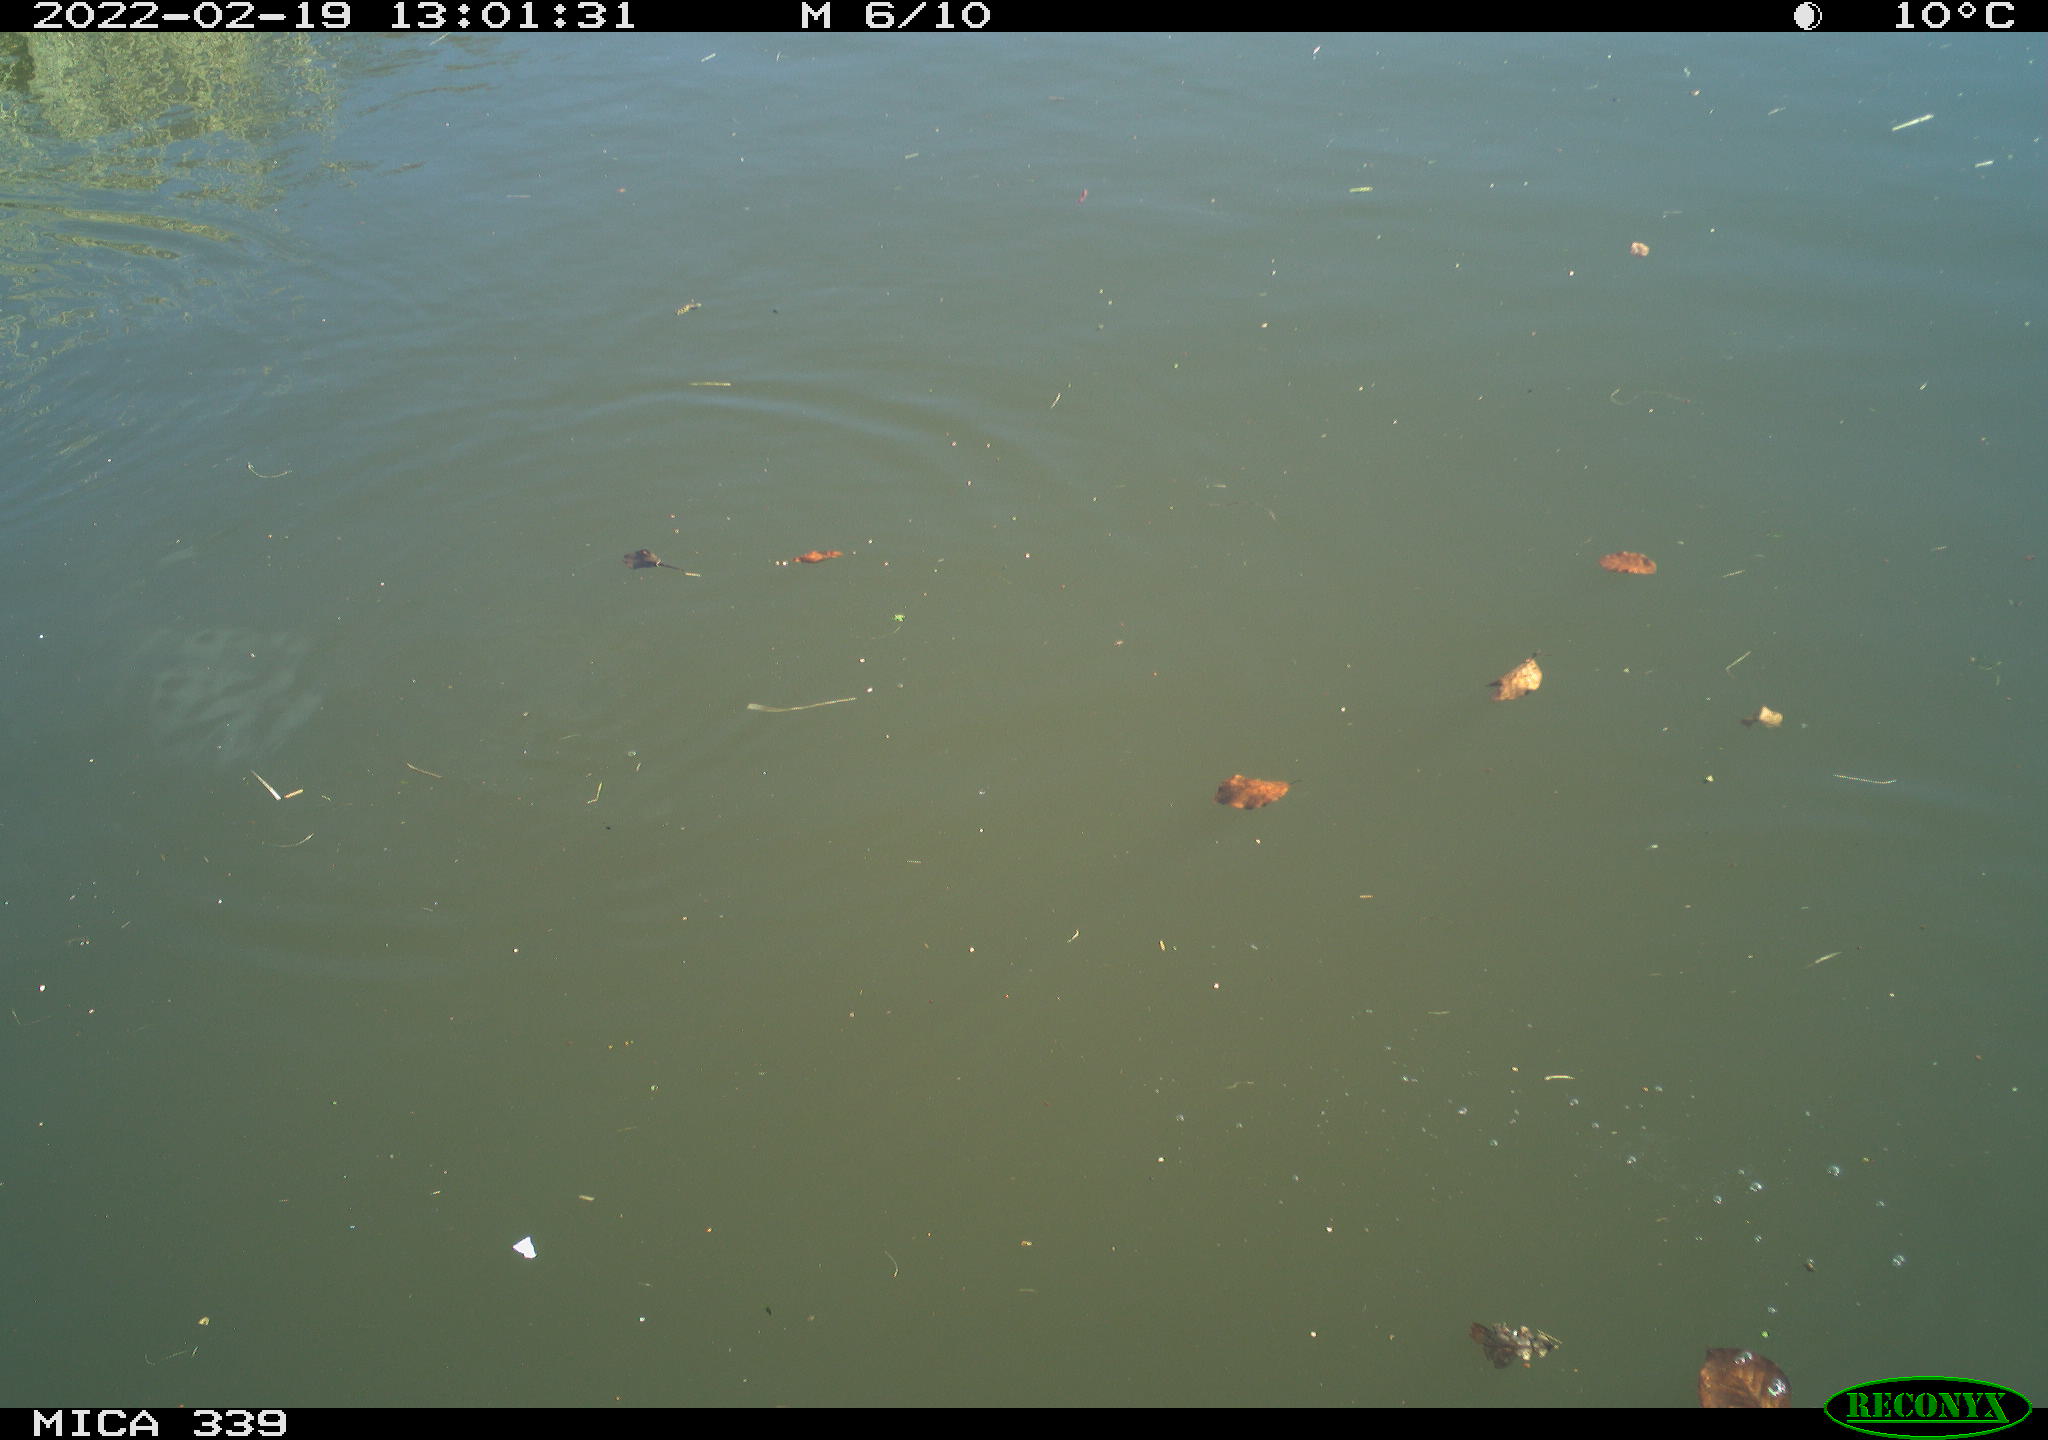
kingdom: Animalia
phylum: Chordata
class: Aves
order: Pelecaniformes
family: Ardeidae
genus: Ardea
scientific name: Ardea alba
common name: Great egret
